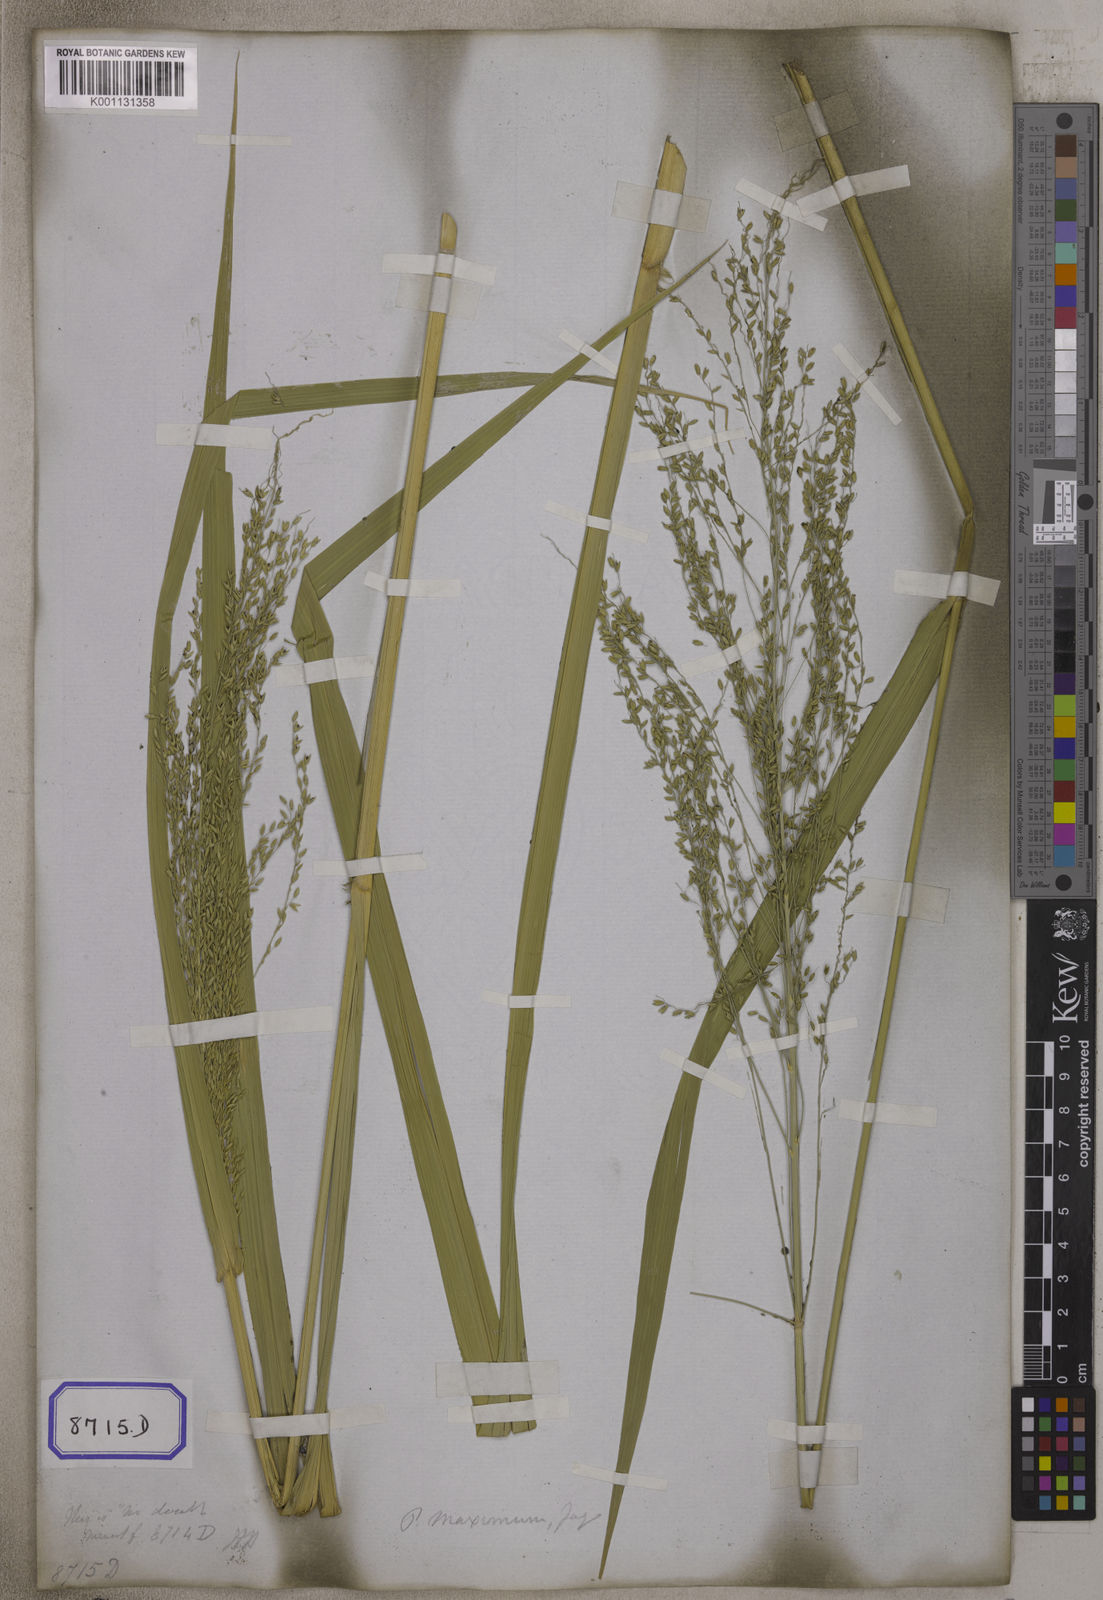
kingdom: Plantae
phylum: Tracheophyta
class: Liliopsida
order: Poales
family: Poaceae
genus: Megathyrsus
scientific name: Megathyrsus maximus
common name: Guineagrass
